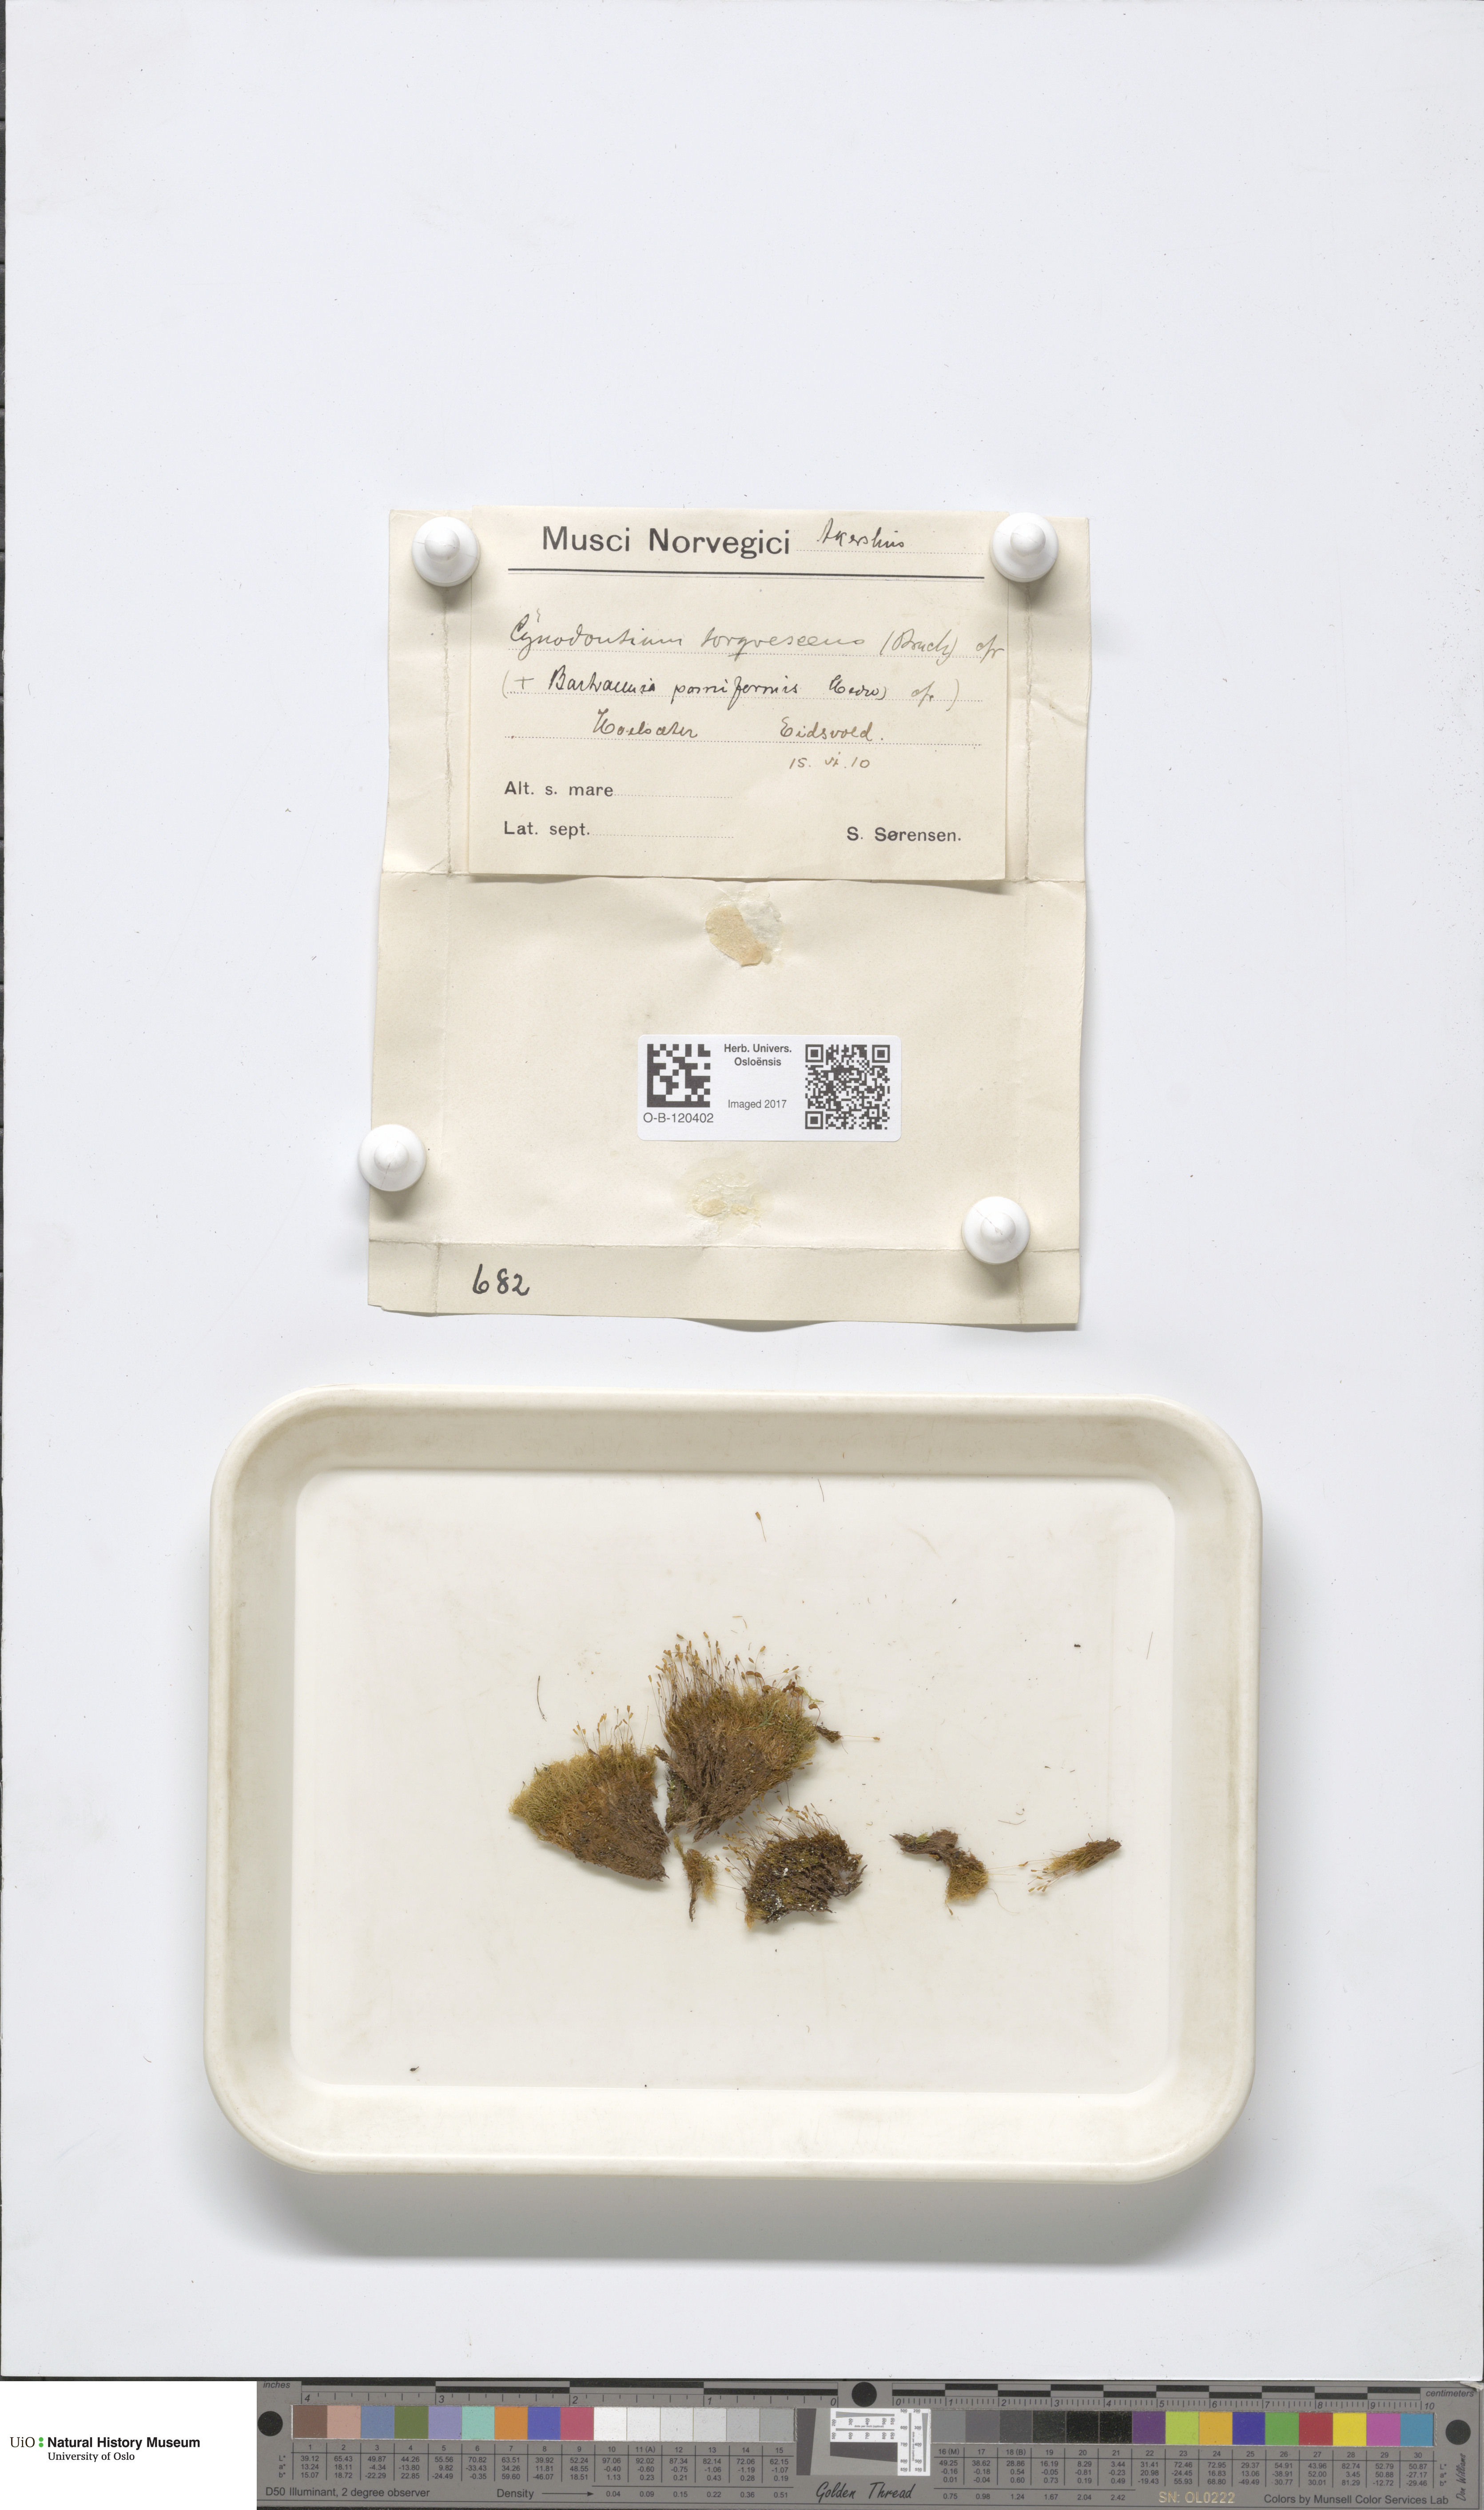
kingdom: Plantae
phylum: Bryophyta
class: Bryopsida
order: Dicranales
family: Rhabdoweisiaceae
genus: Cynodontium
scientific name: Cynodontium tenellum
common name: Delicate dogtooth moss
